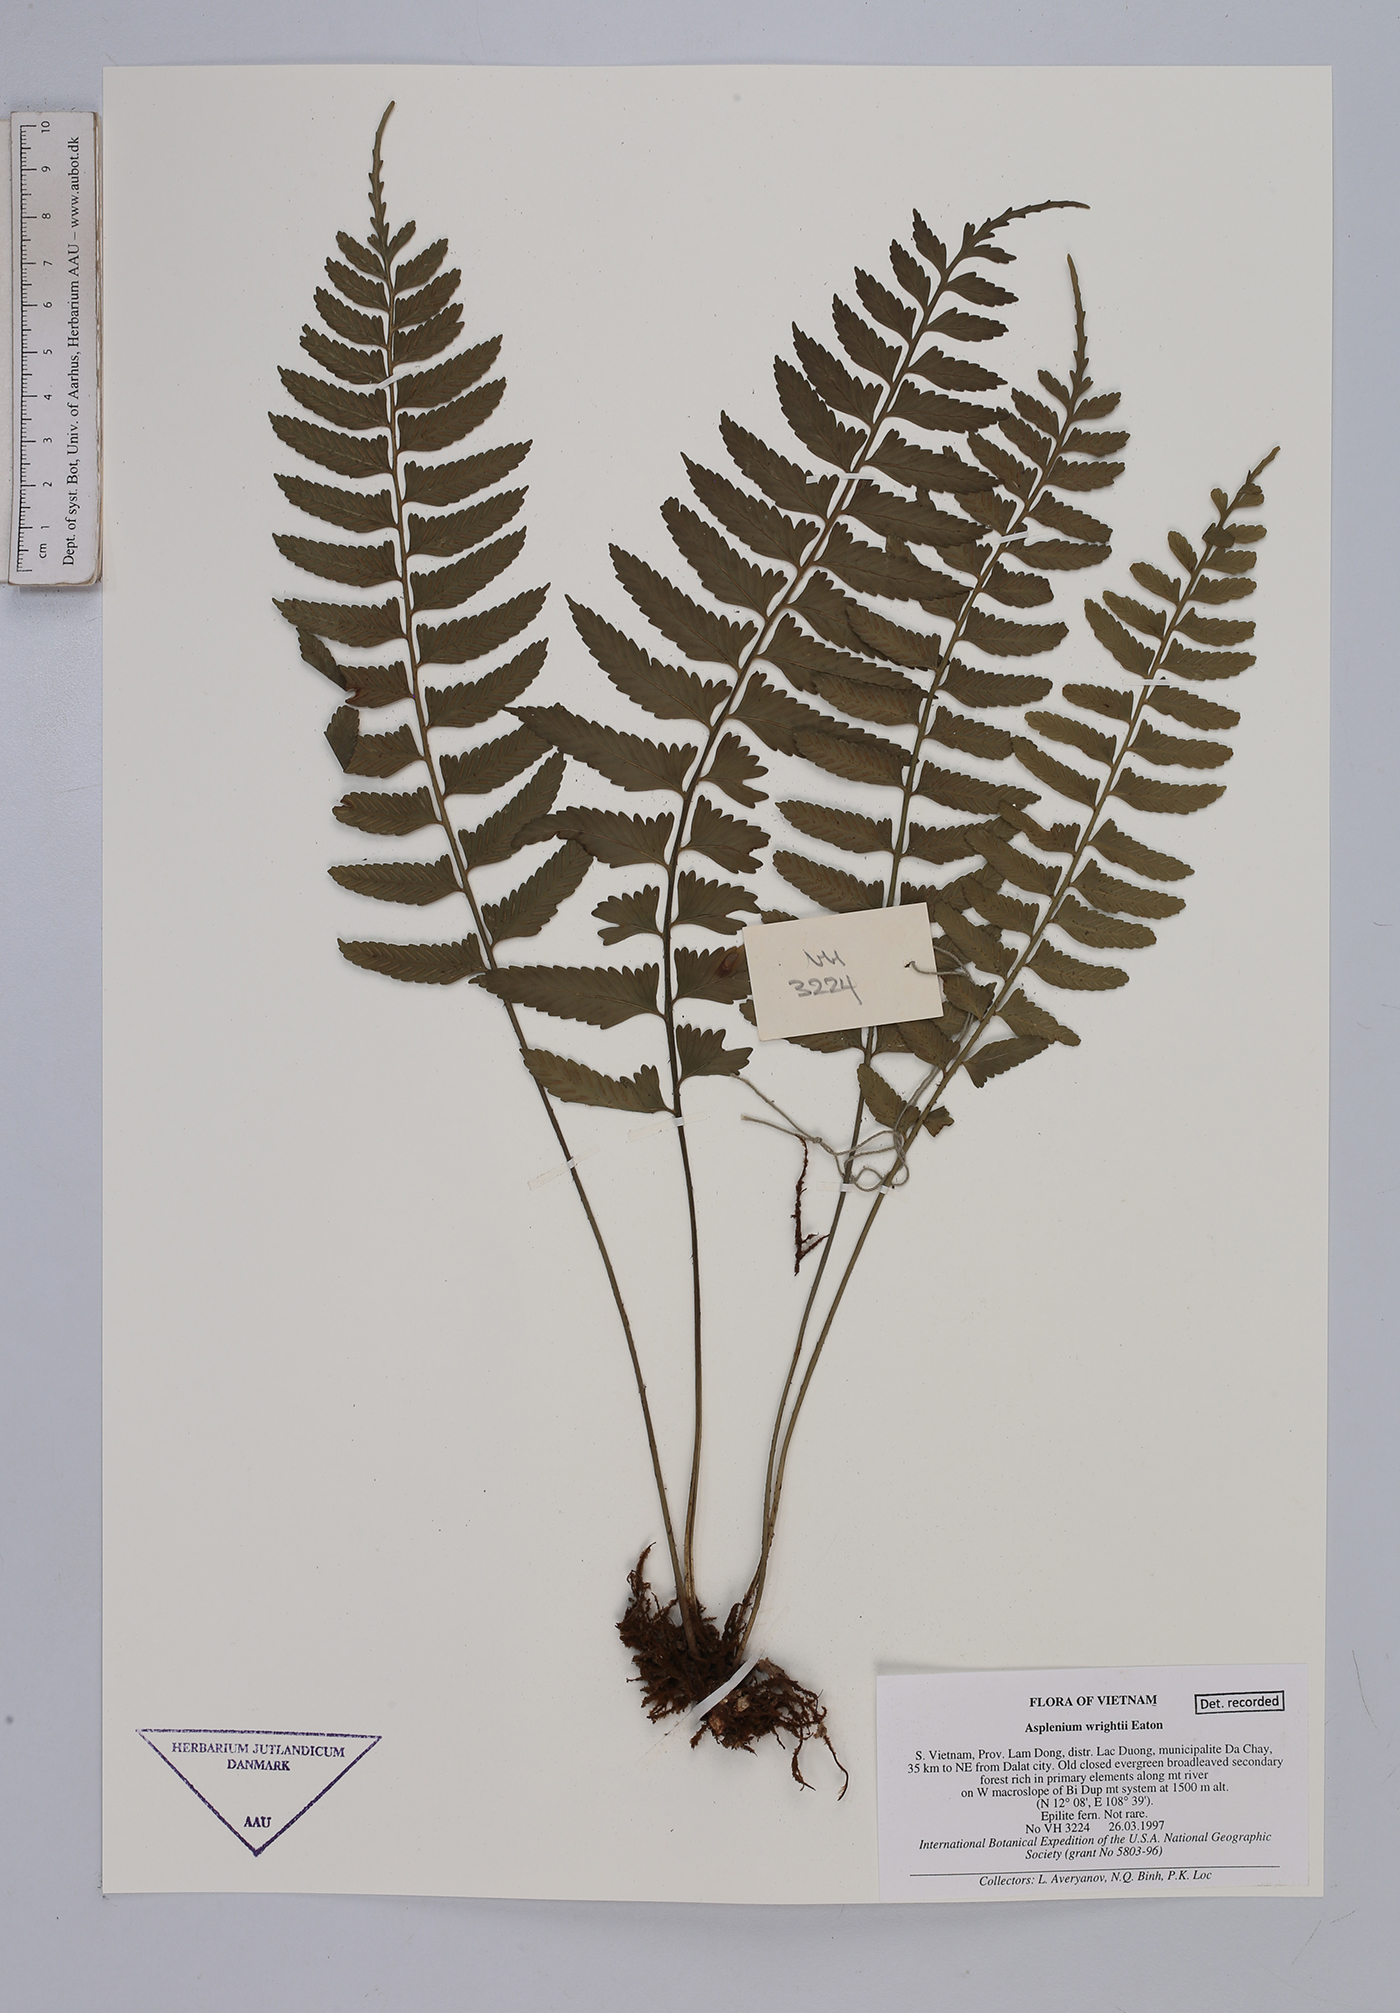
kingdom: Plantae
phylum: Tracheophyta
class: Polypodiopsida
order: Polypodiales
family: Aspleniaceae
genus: Asplenium
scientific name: Asplenium wrightii
